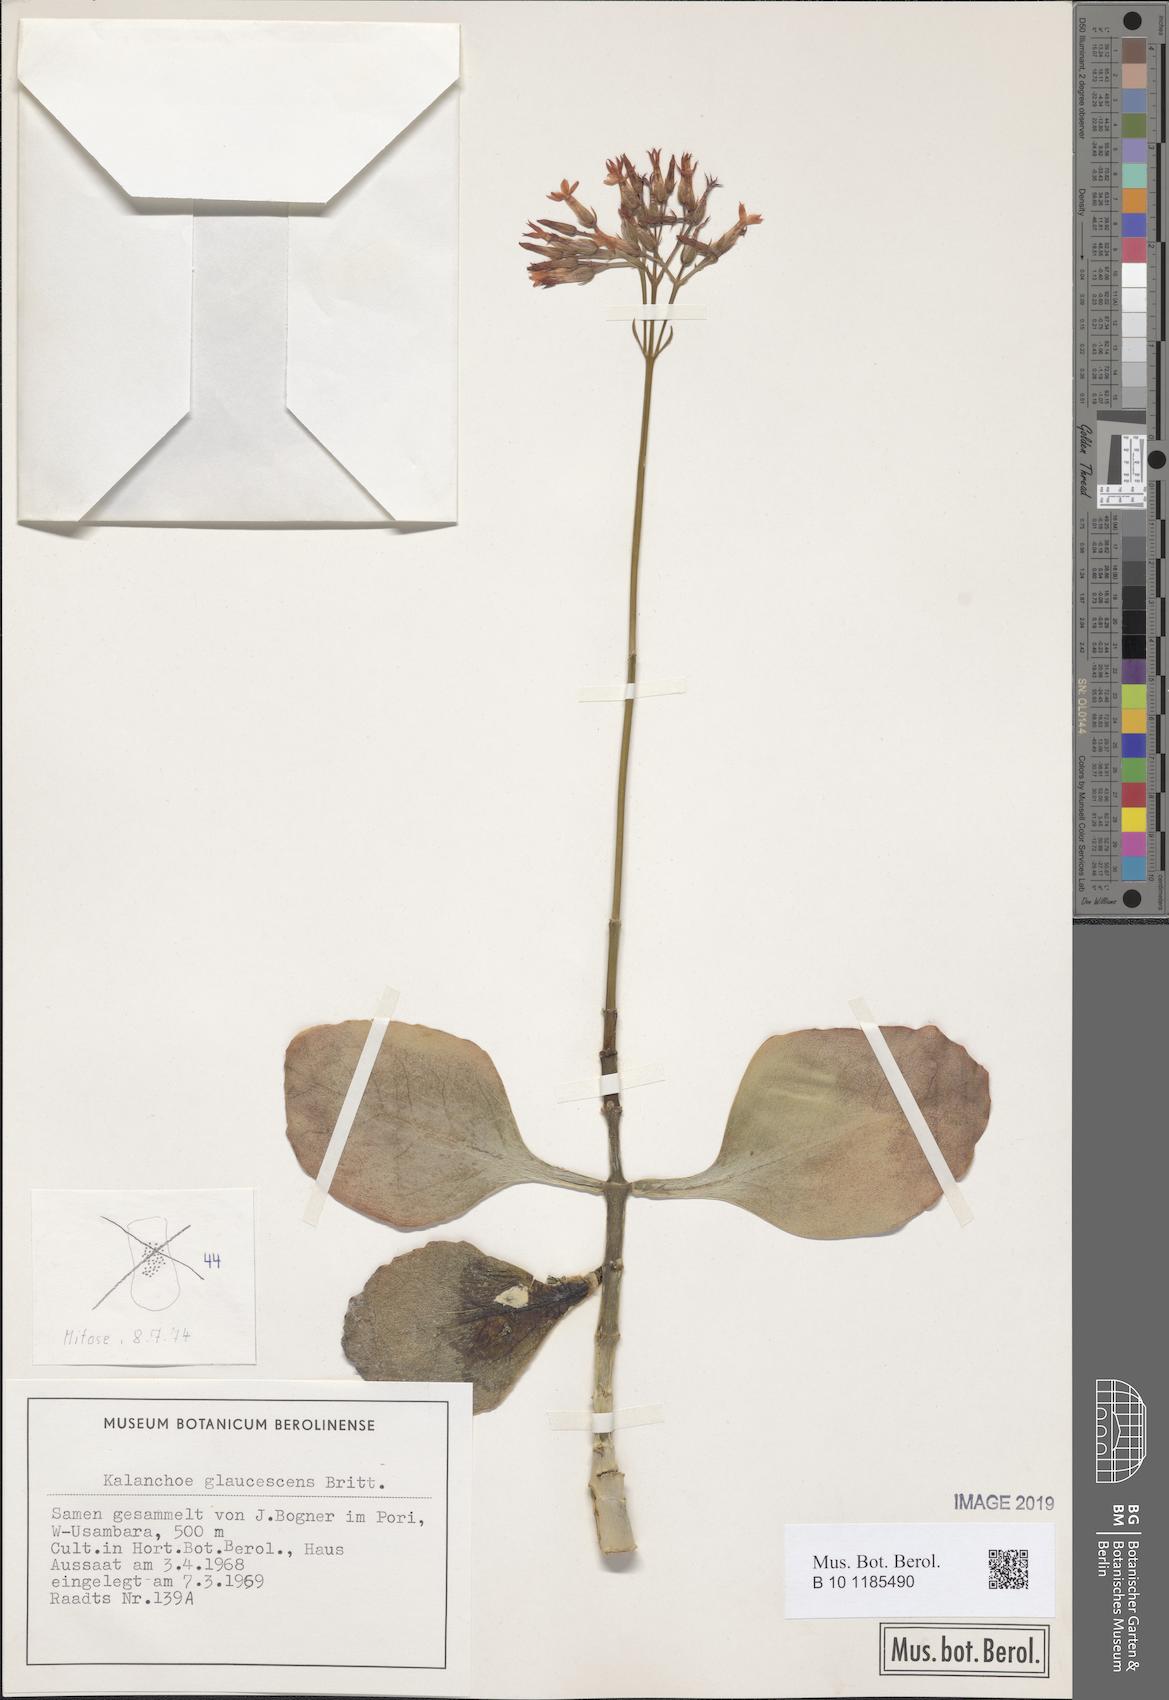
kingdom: Plantae
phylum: Tracheophyta
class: Magnoliopsida
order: Saxifragales
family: Crassulaceae
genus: Kalanchoe
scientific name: Kalanchoe glaucescens
